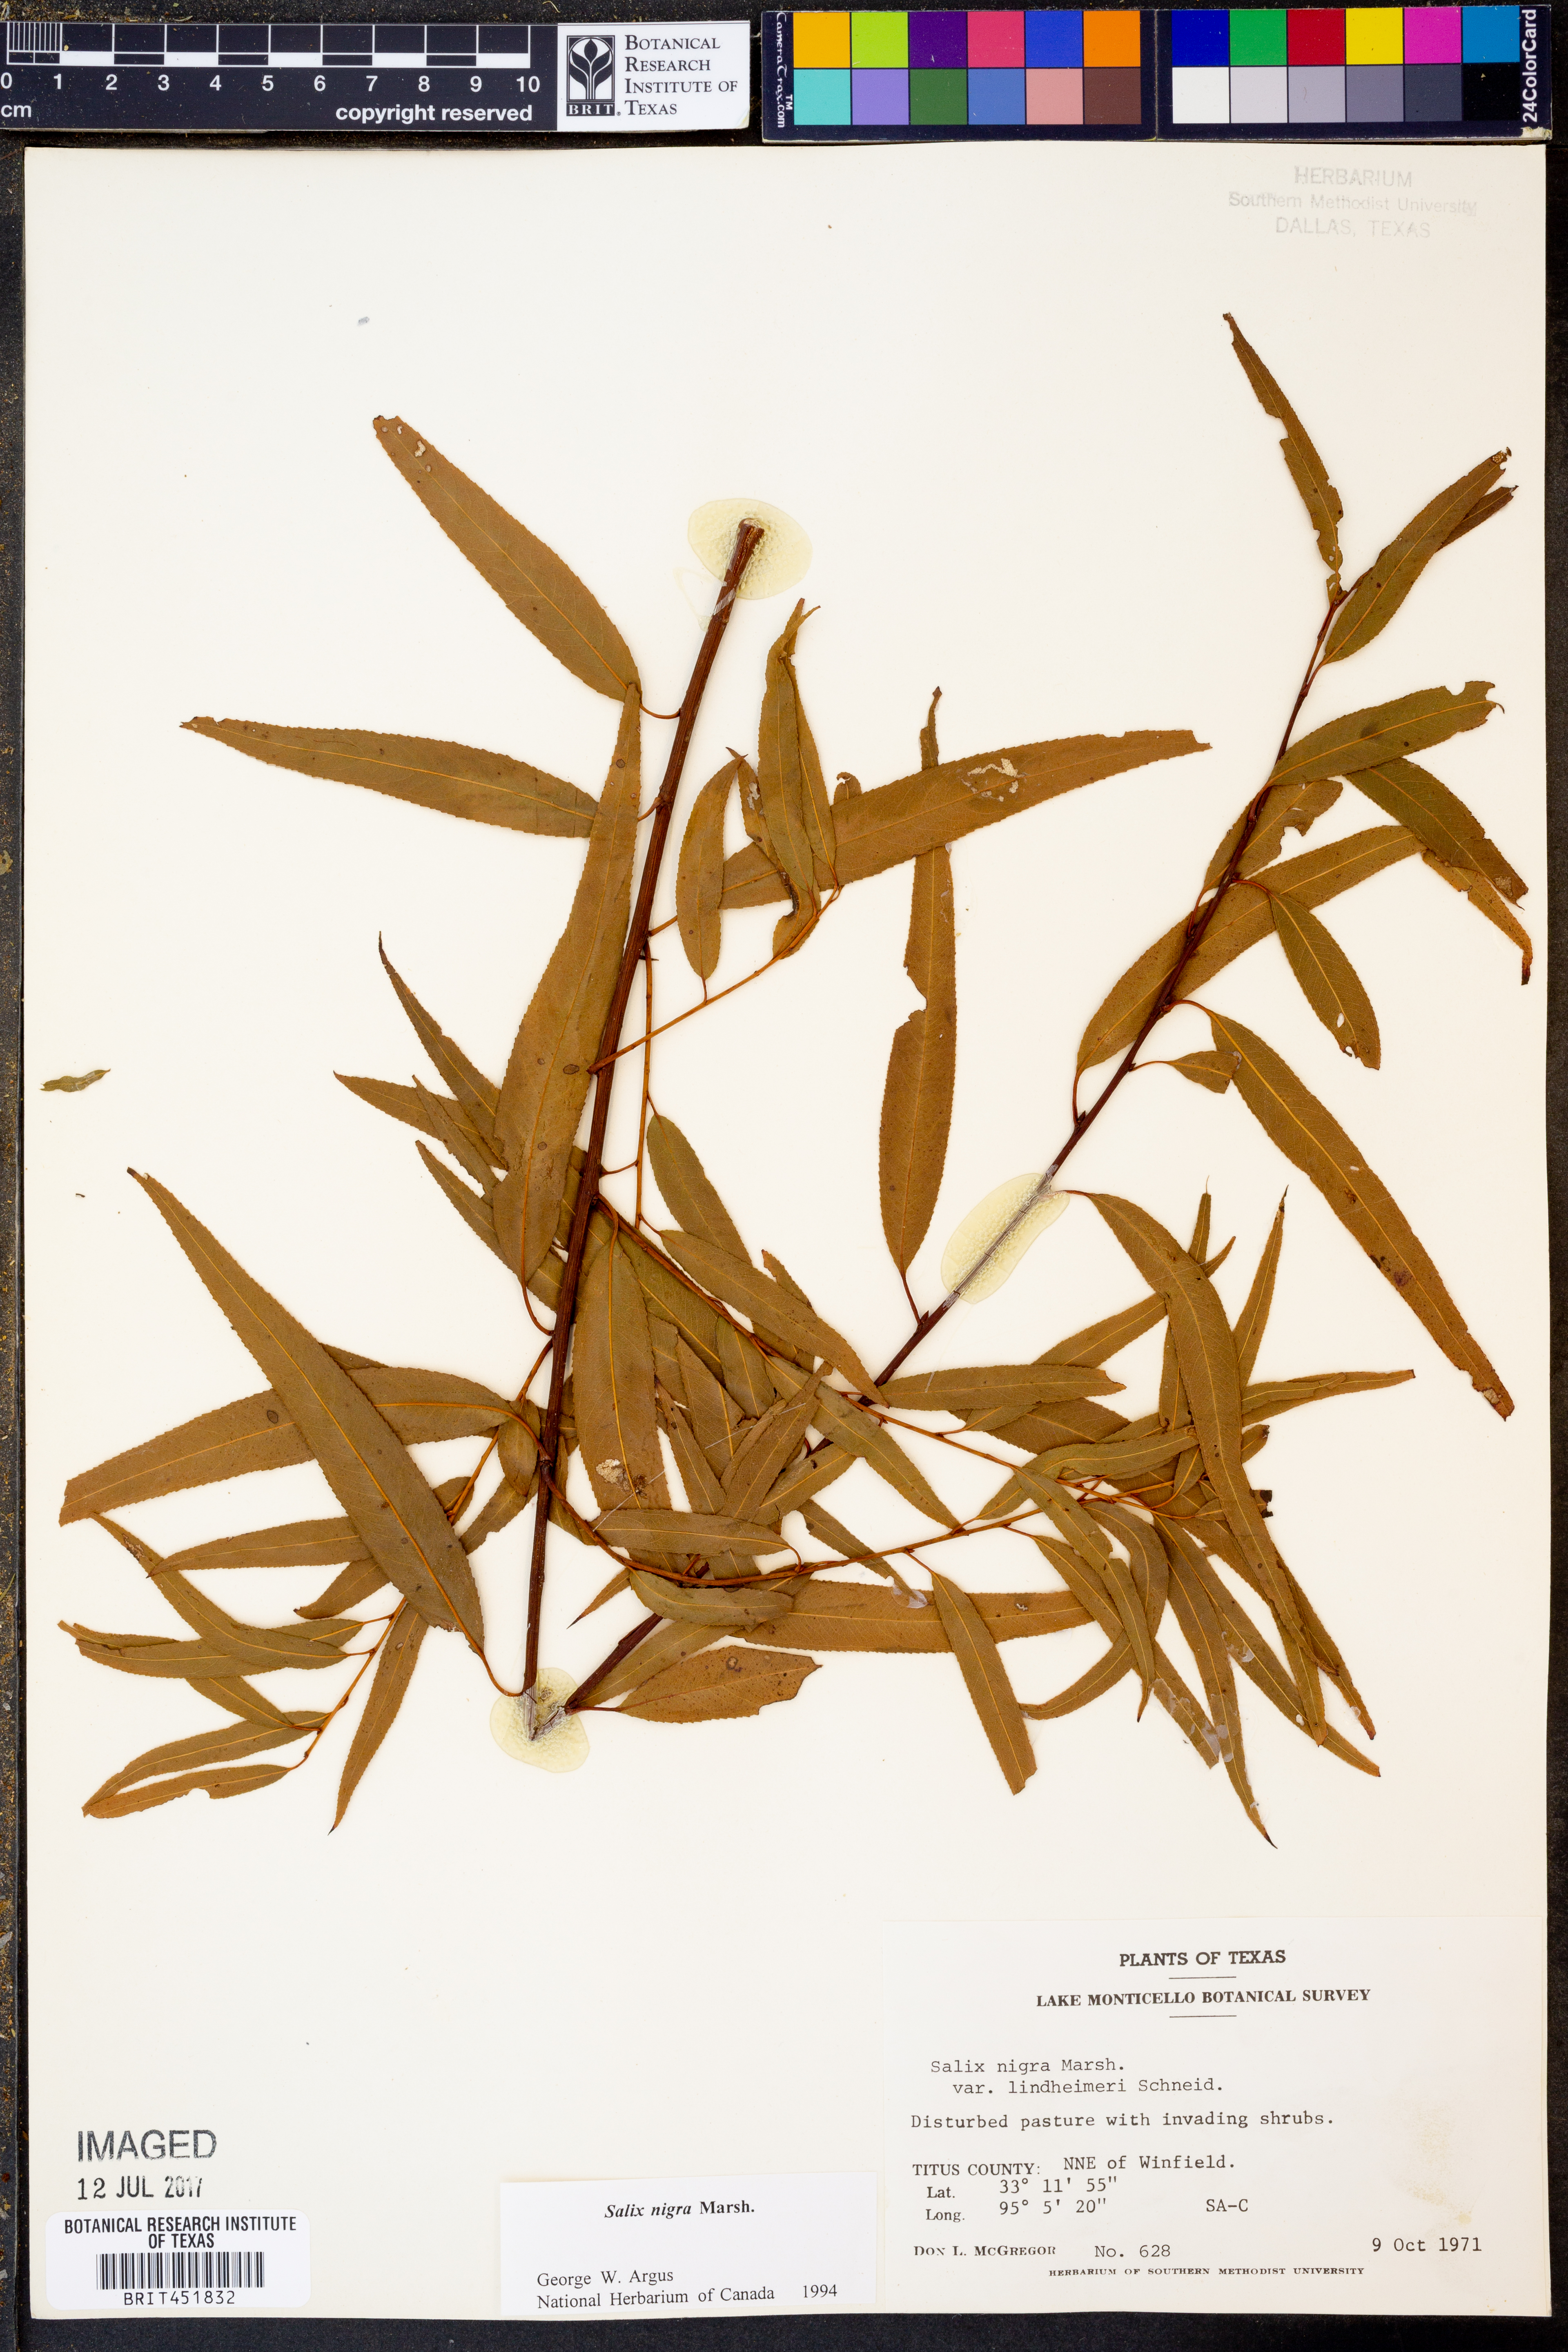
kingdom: Plantae
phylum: Tracheophyta
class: Magnoliopsida
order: Malpighiales
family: Salicaceae
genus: Salix
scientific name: Salix nigra
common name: Black willow
